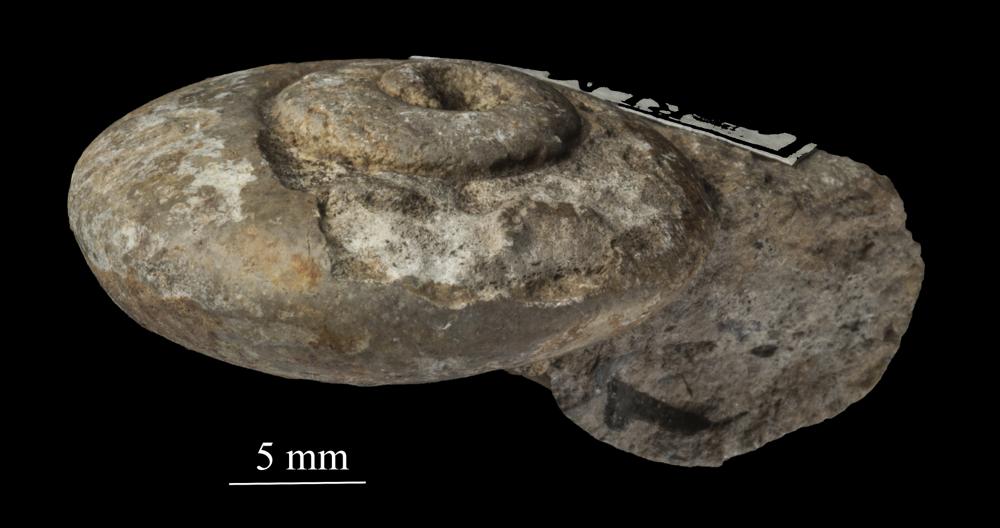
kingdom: Animalia
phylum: Mollusca
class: Gastropoda
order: Neogastropoda
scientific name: Neogastropoda
